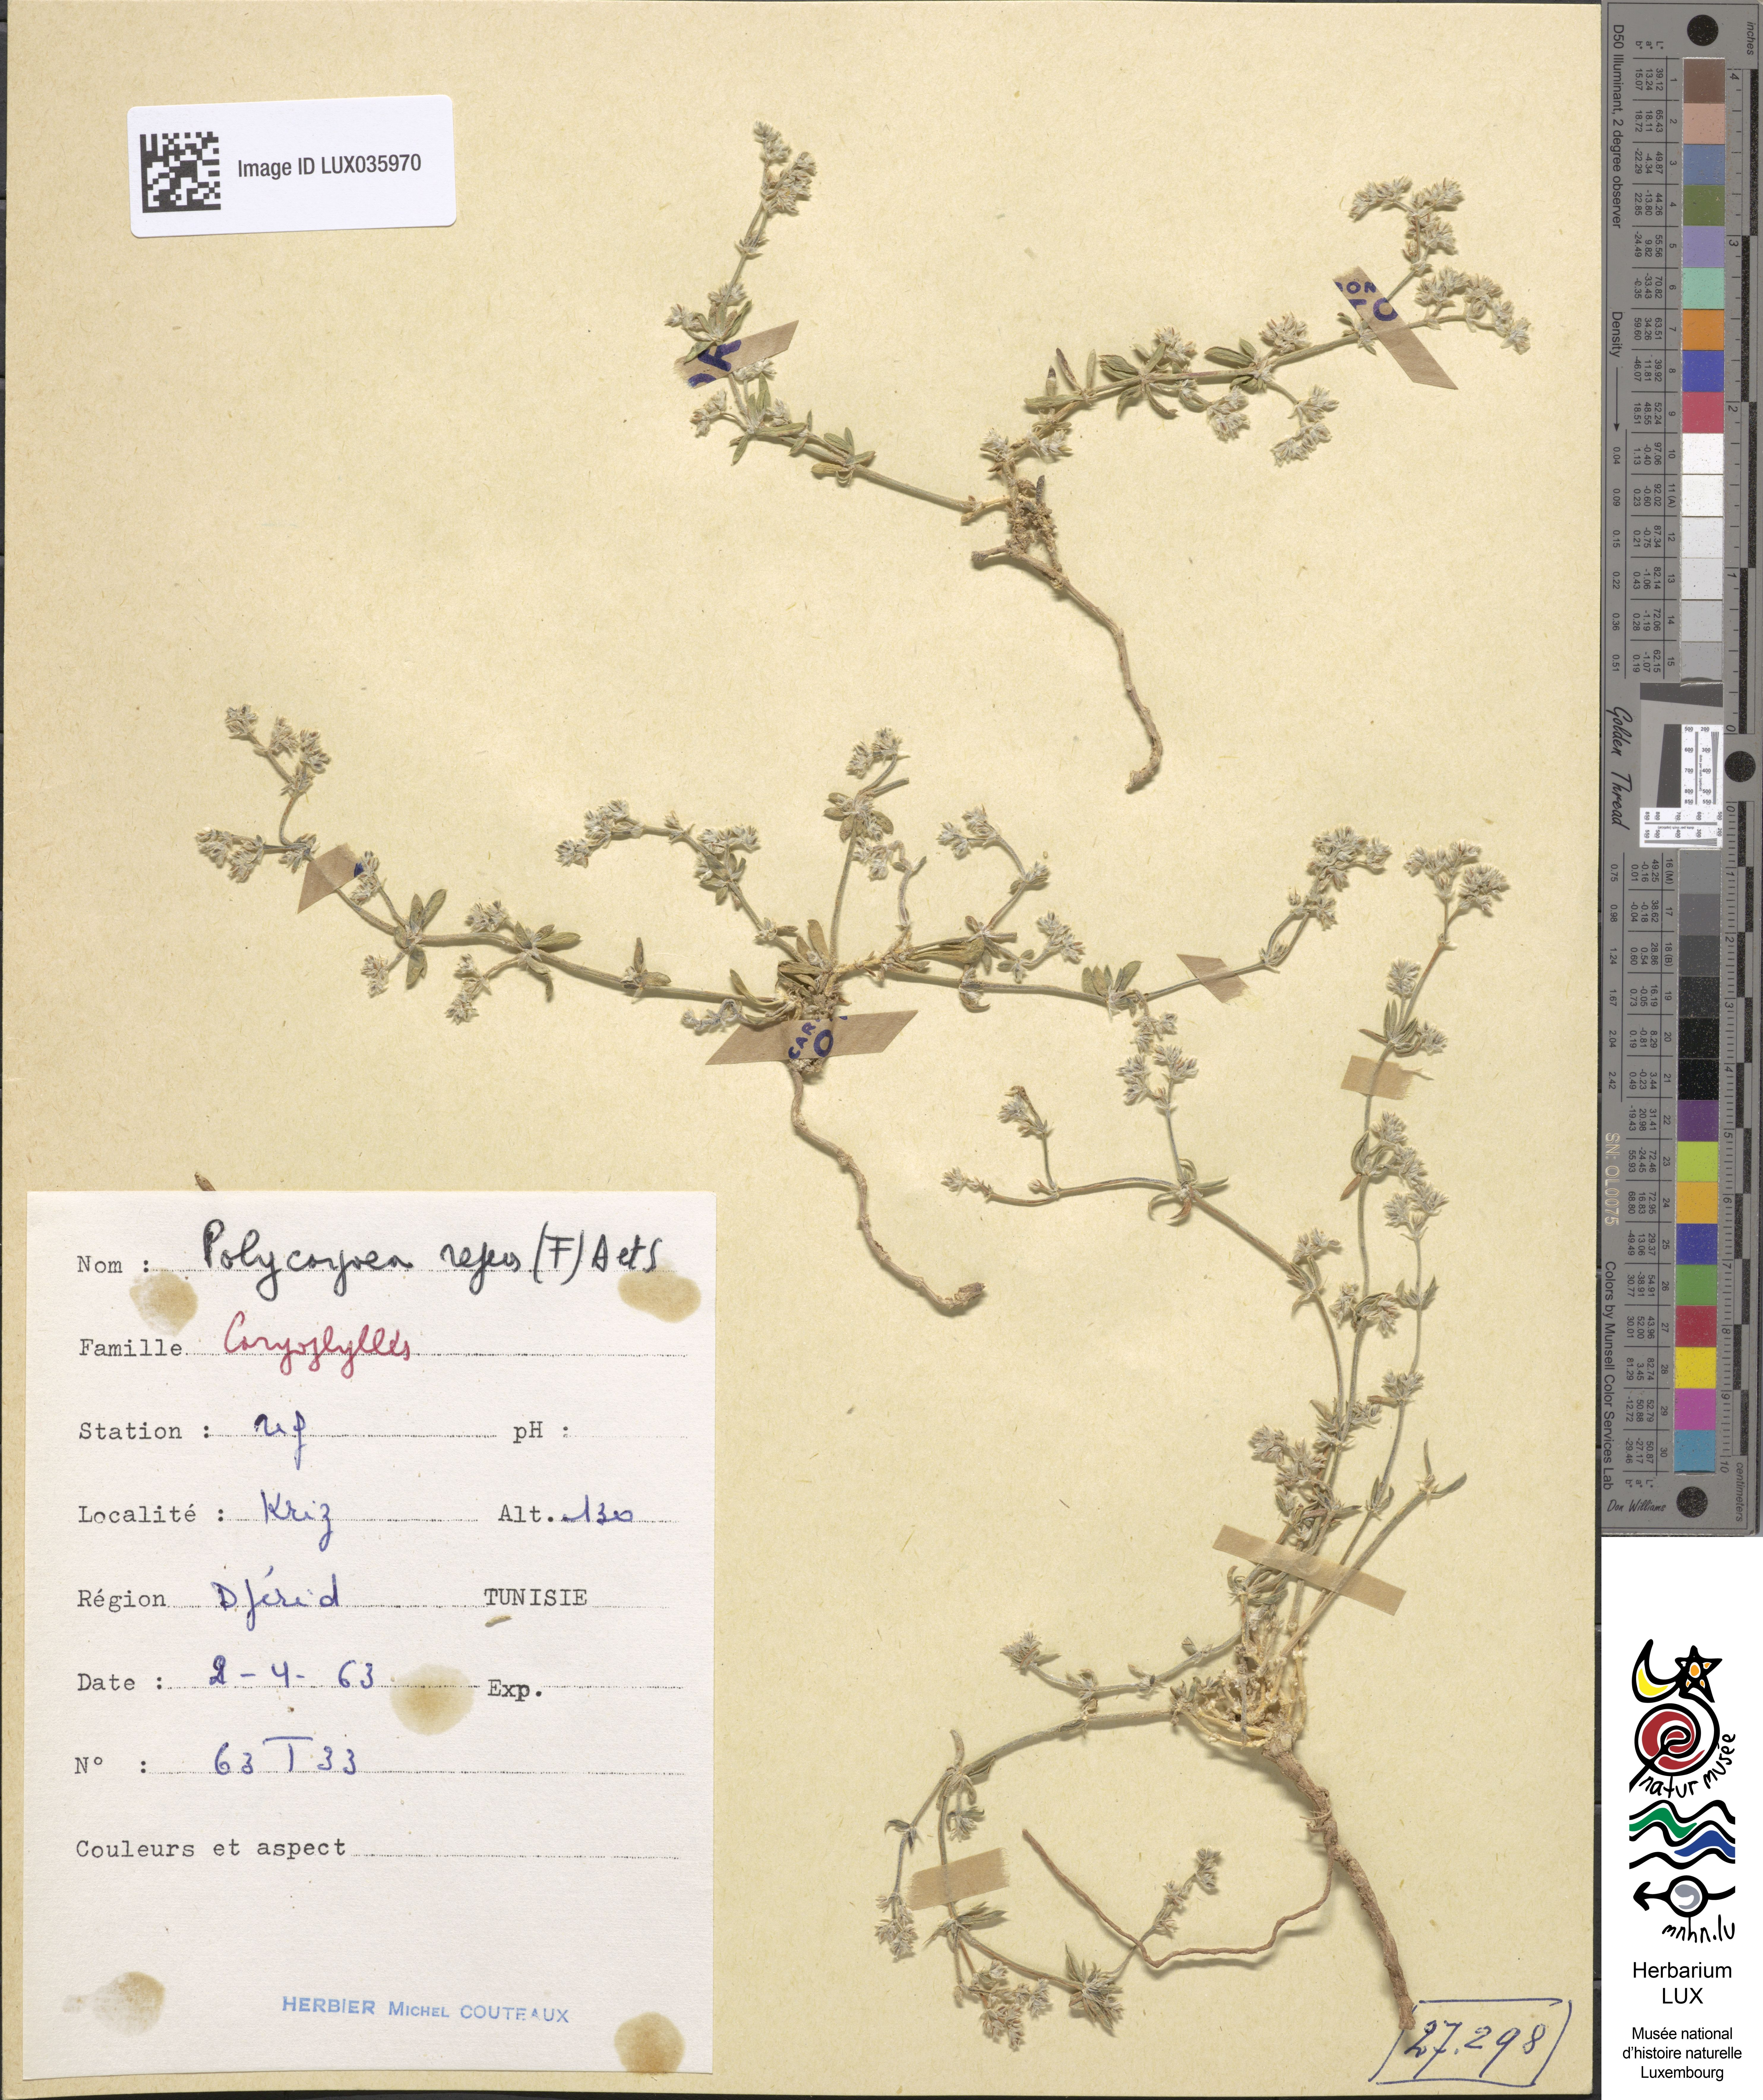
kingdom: Plantae
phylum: Tracheophyta
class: Magnoliopsida
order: Caryophyllales
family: Caryophyllaceae
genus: Polycarpaea
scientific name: Polycarpaea repens
